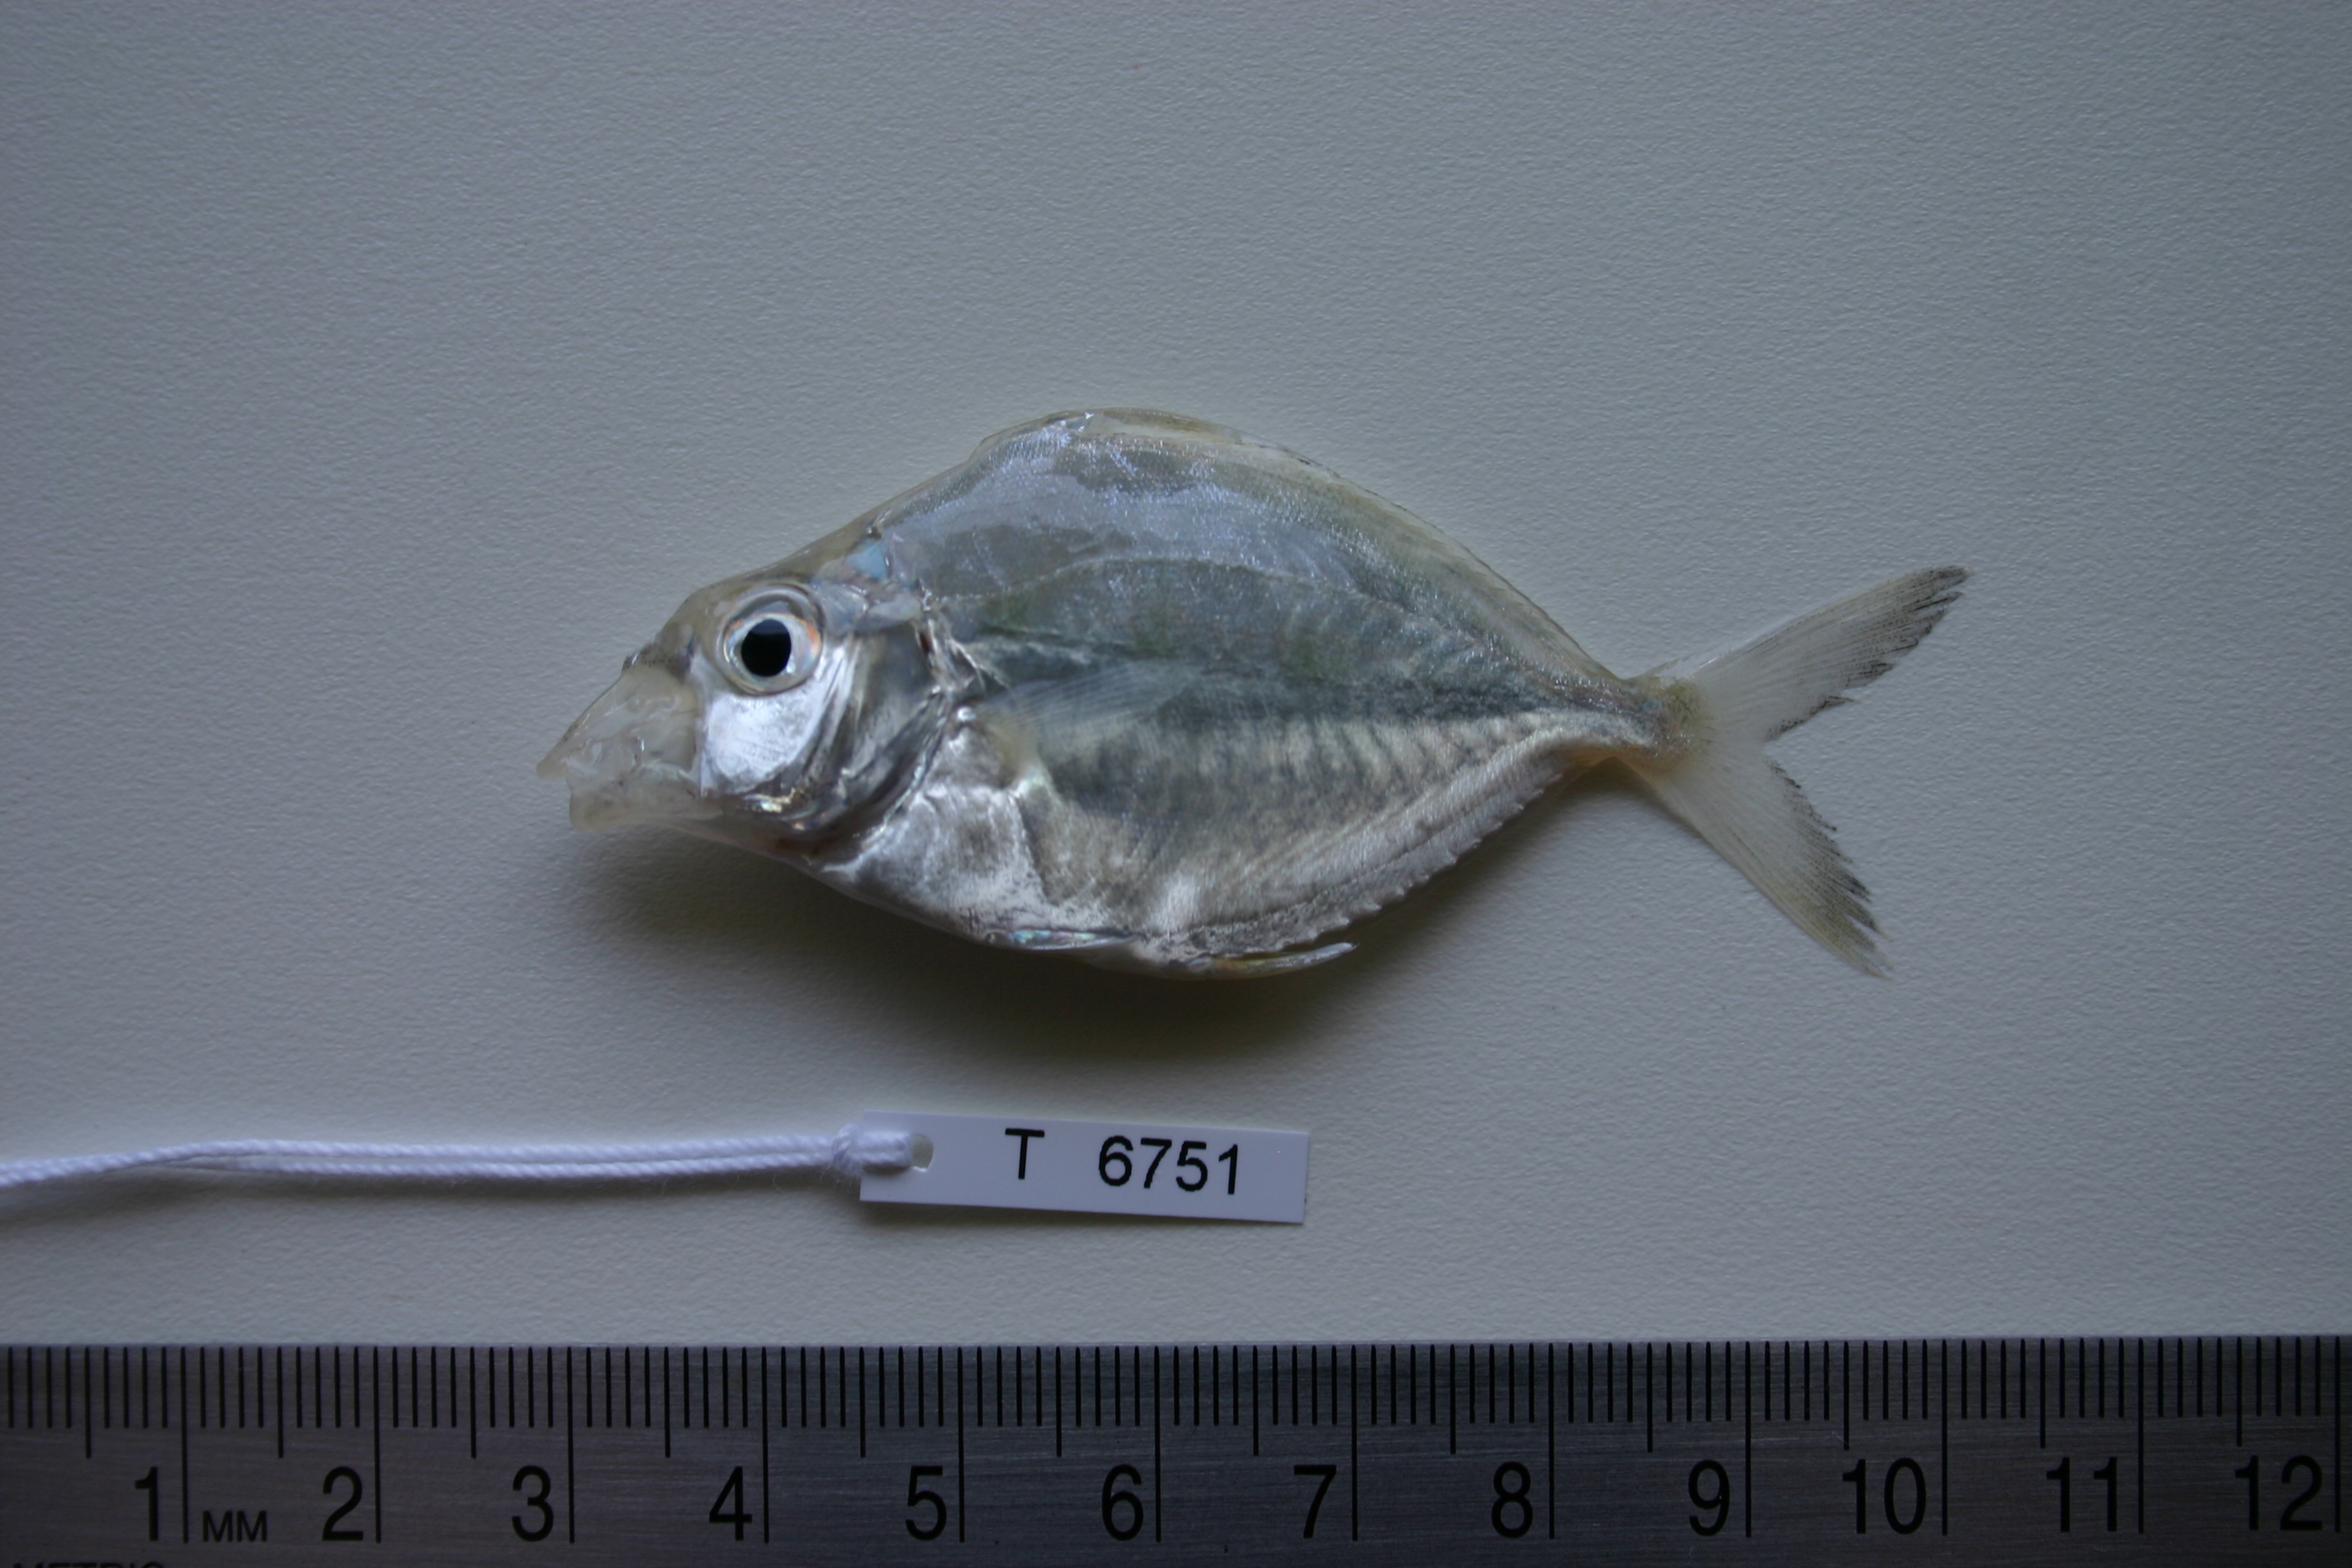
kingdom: Animalia
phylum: Chordata
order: Perciformes
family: Leiognathidae
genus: Leiognathus
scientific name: Leiognathus equulus
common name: Common ponyfish
